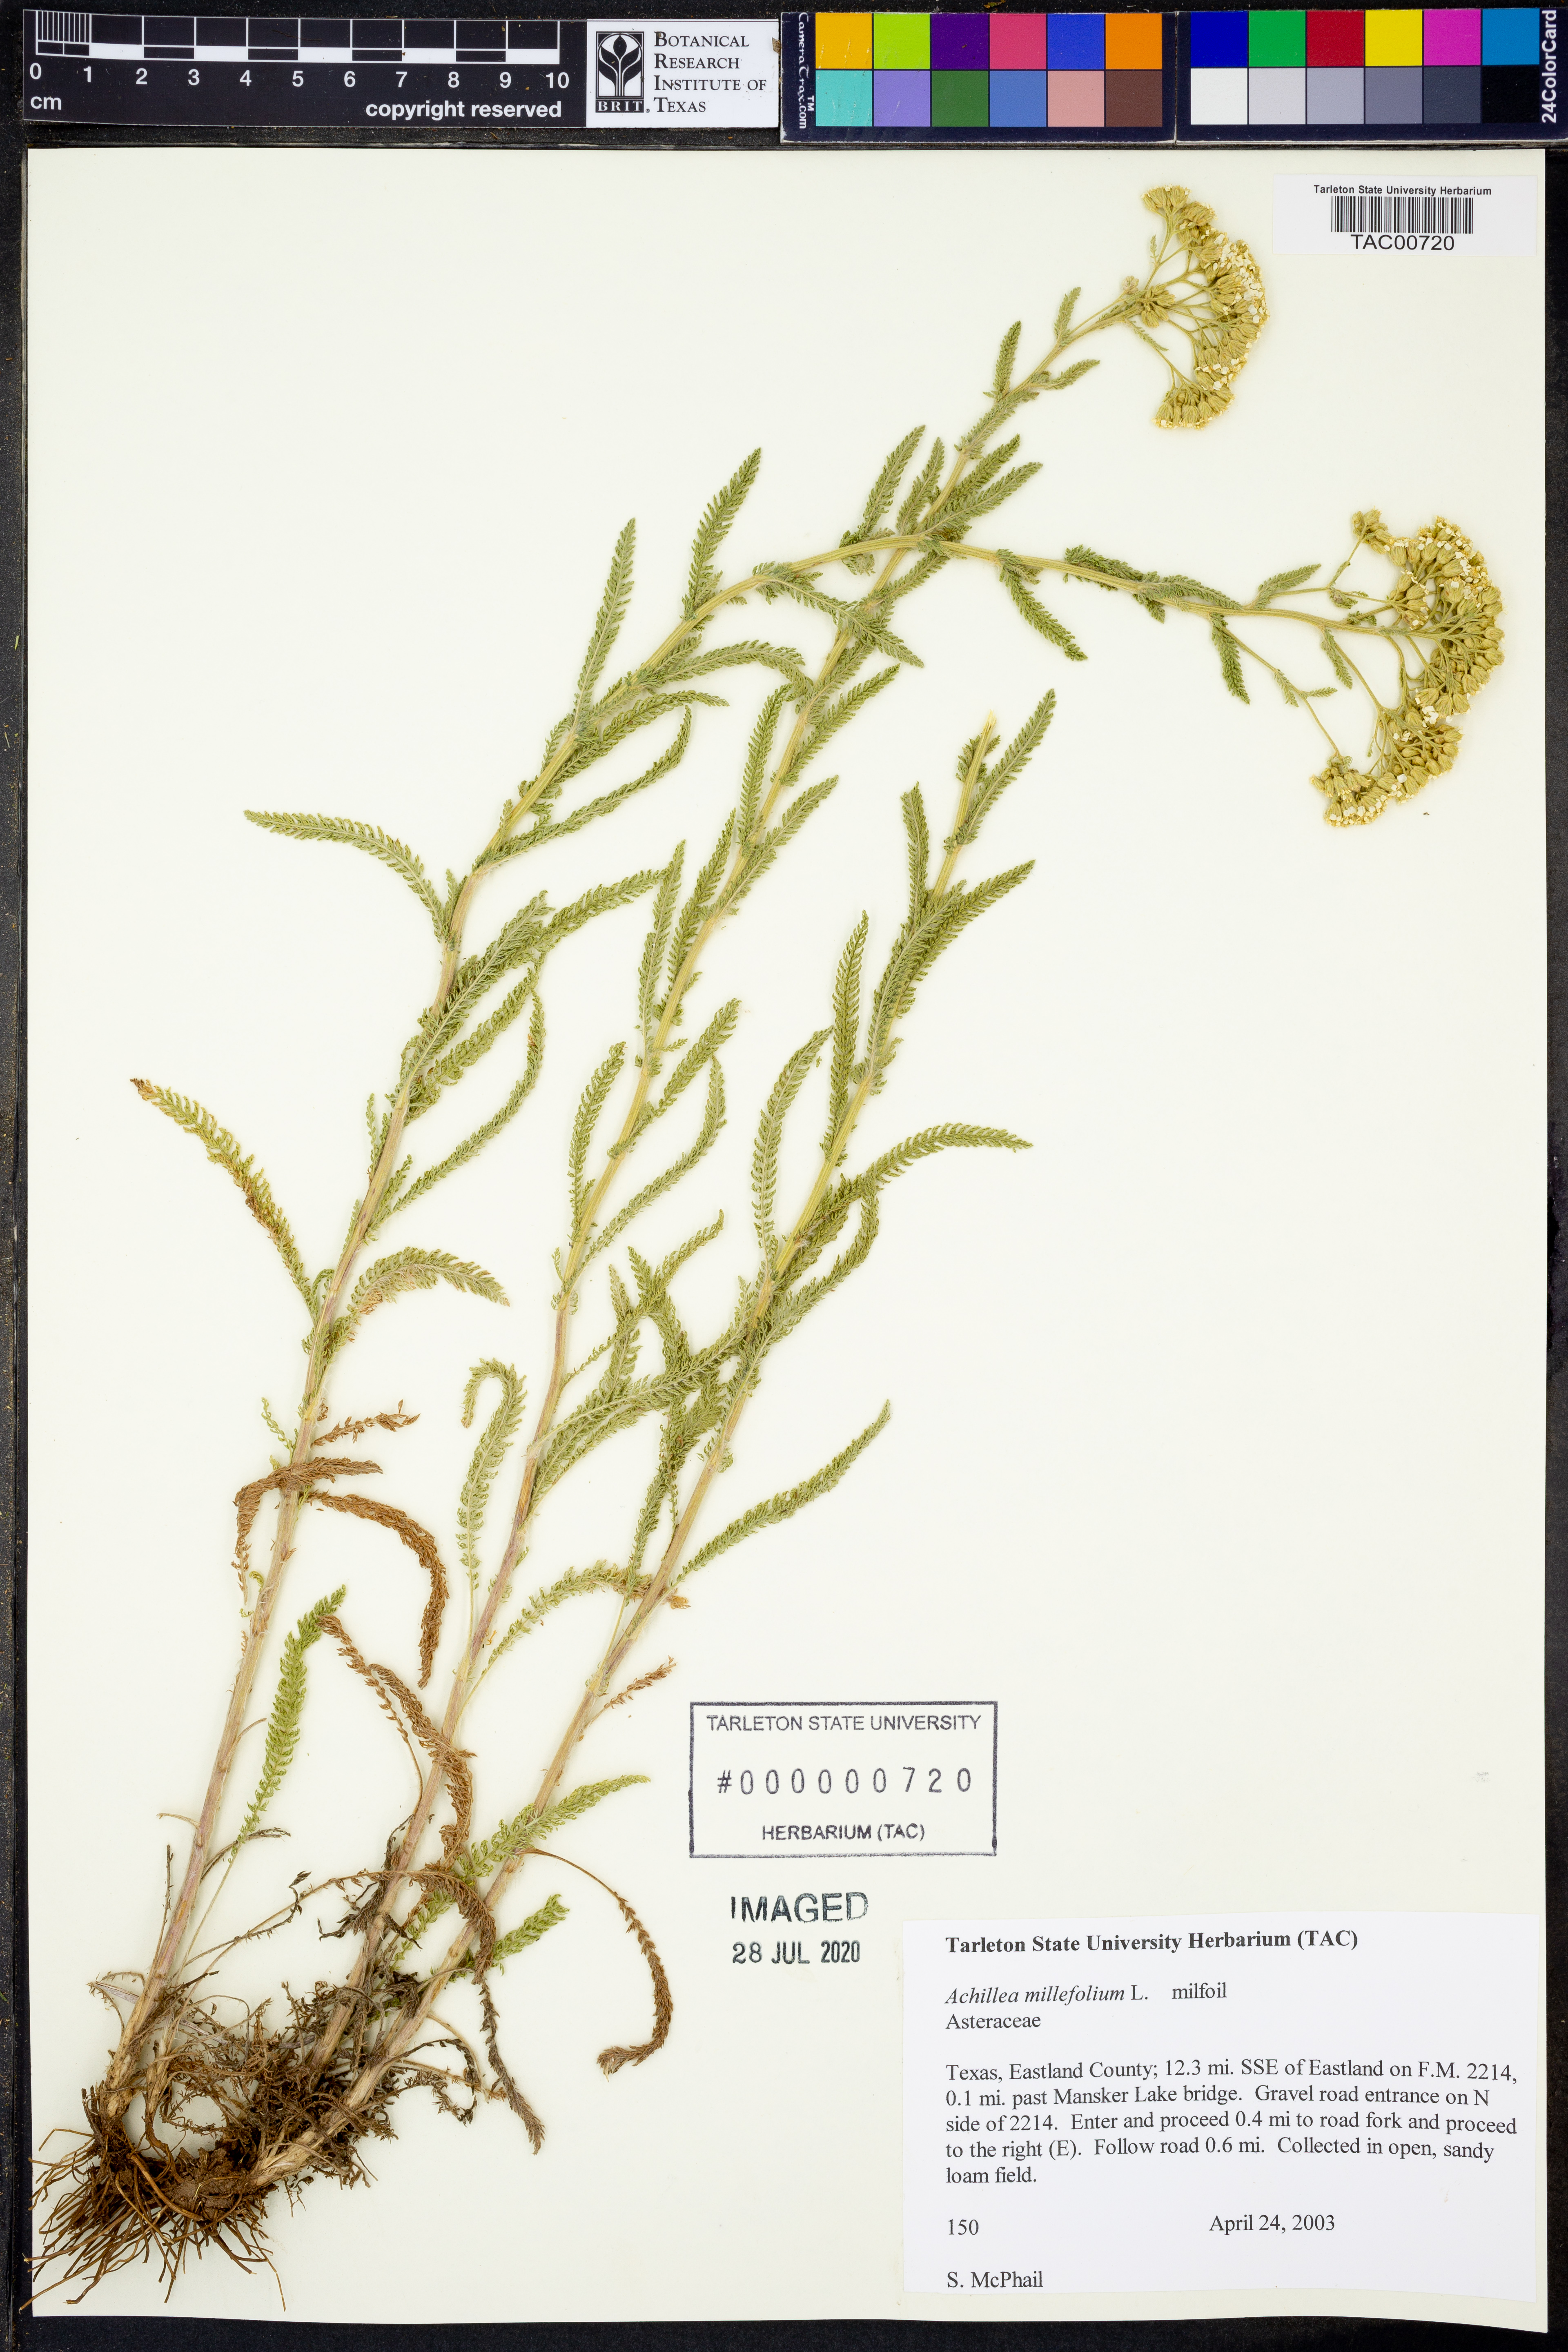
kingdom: Plantae
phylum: Tracheophyta
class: Magnoliopsida
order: Asterales
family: Asteraceae
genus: Achillea
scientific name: Achillea millefolium
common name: Yarrow
